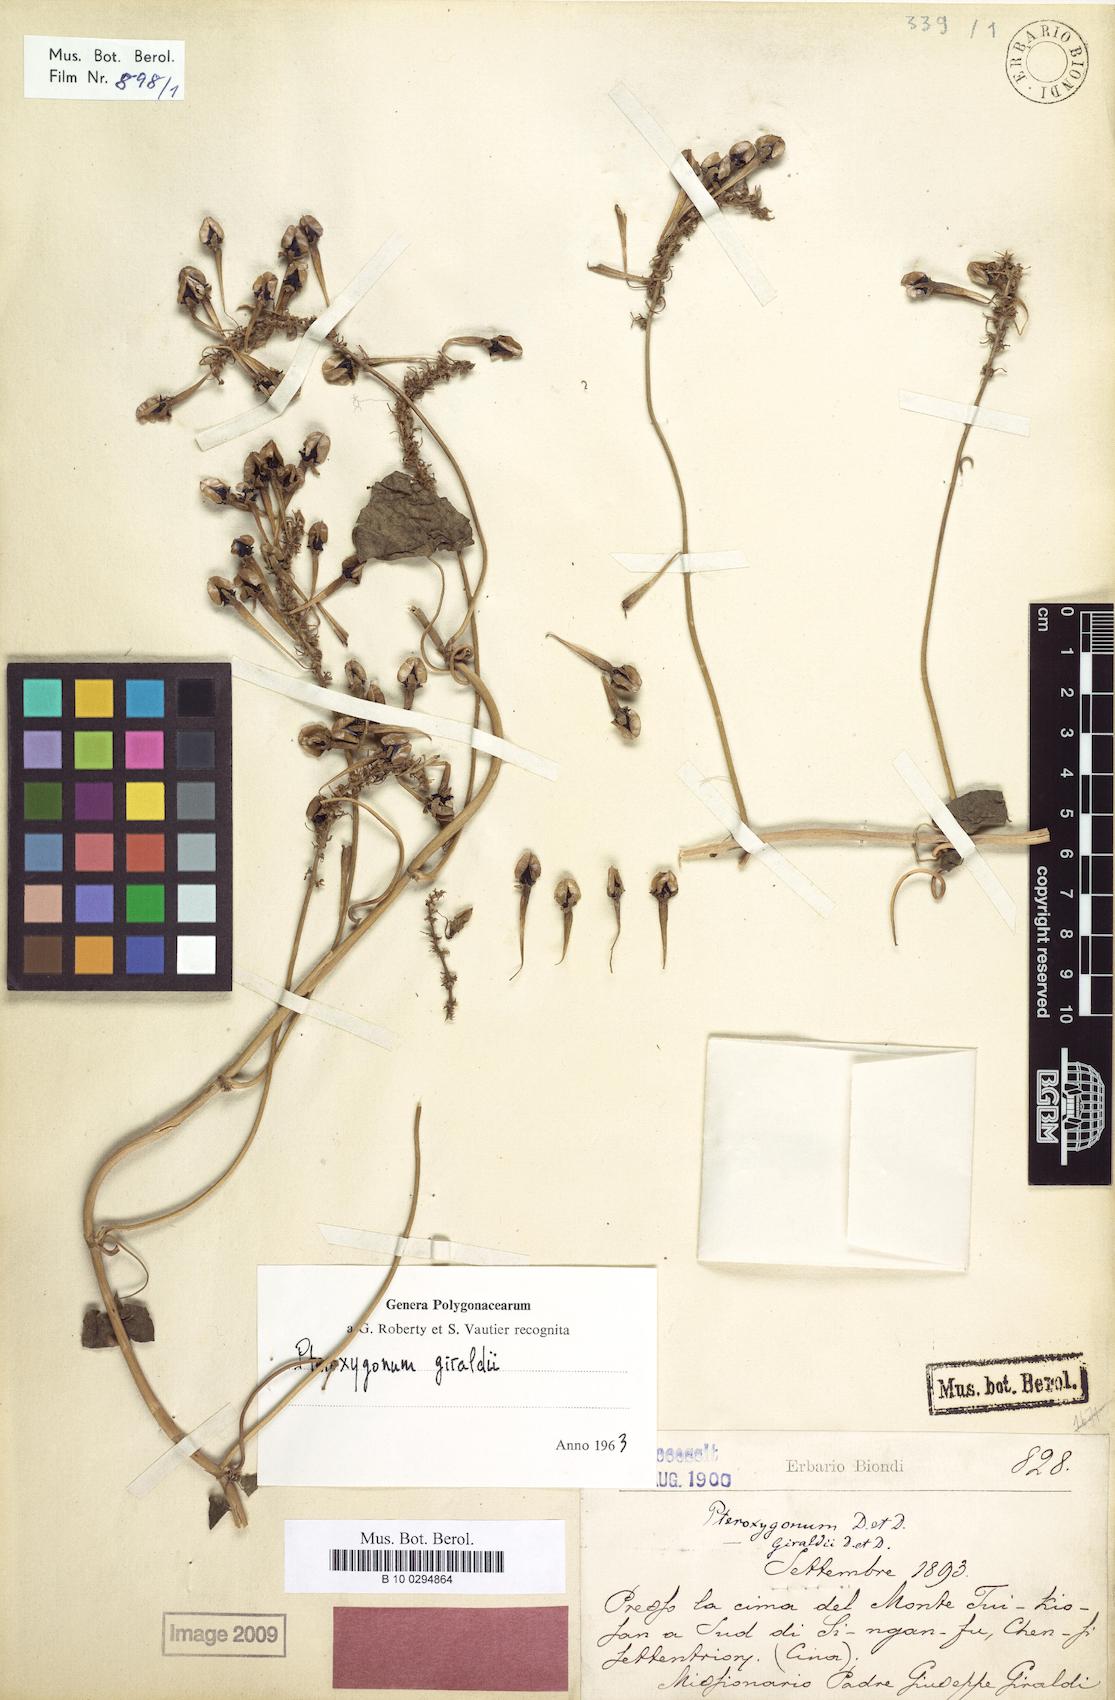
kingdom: Plantae
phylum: Tracheophyta
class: Magnoliopsida
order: Caryophyllales
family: Polygonaceae
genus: Pteroxygonum
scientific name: Pteroxygonum giraldii
